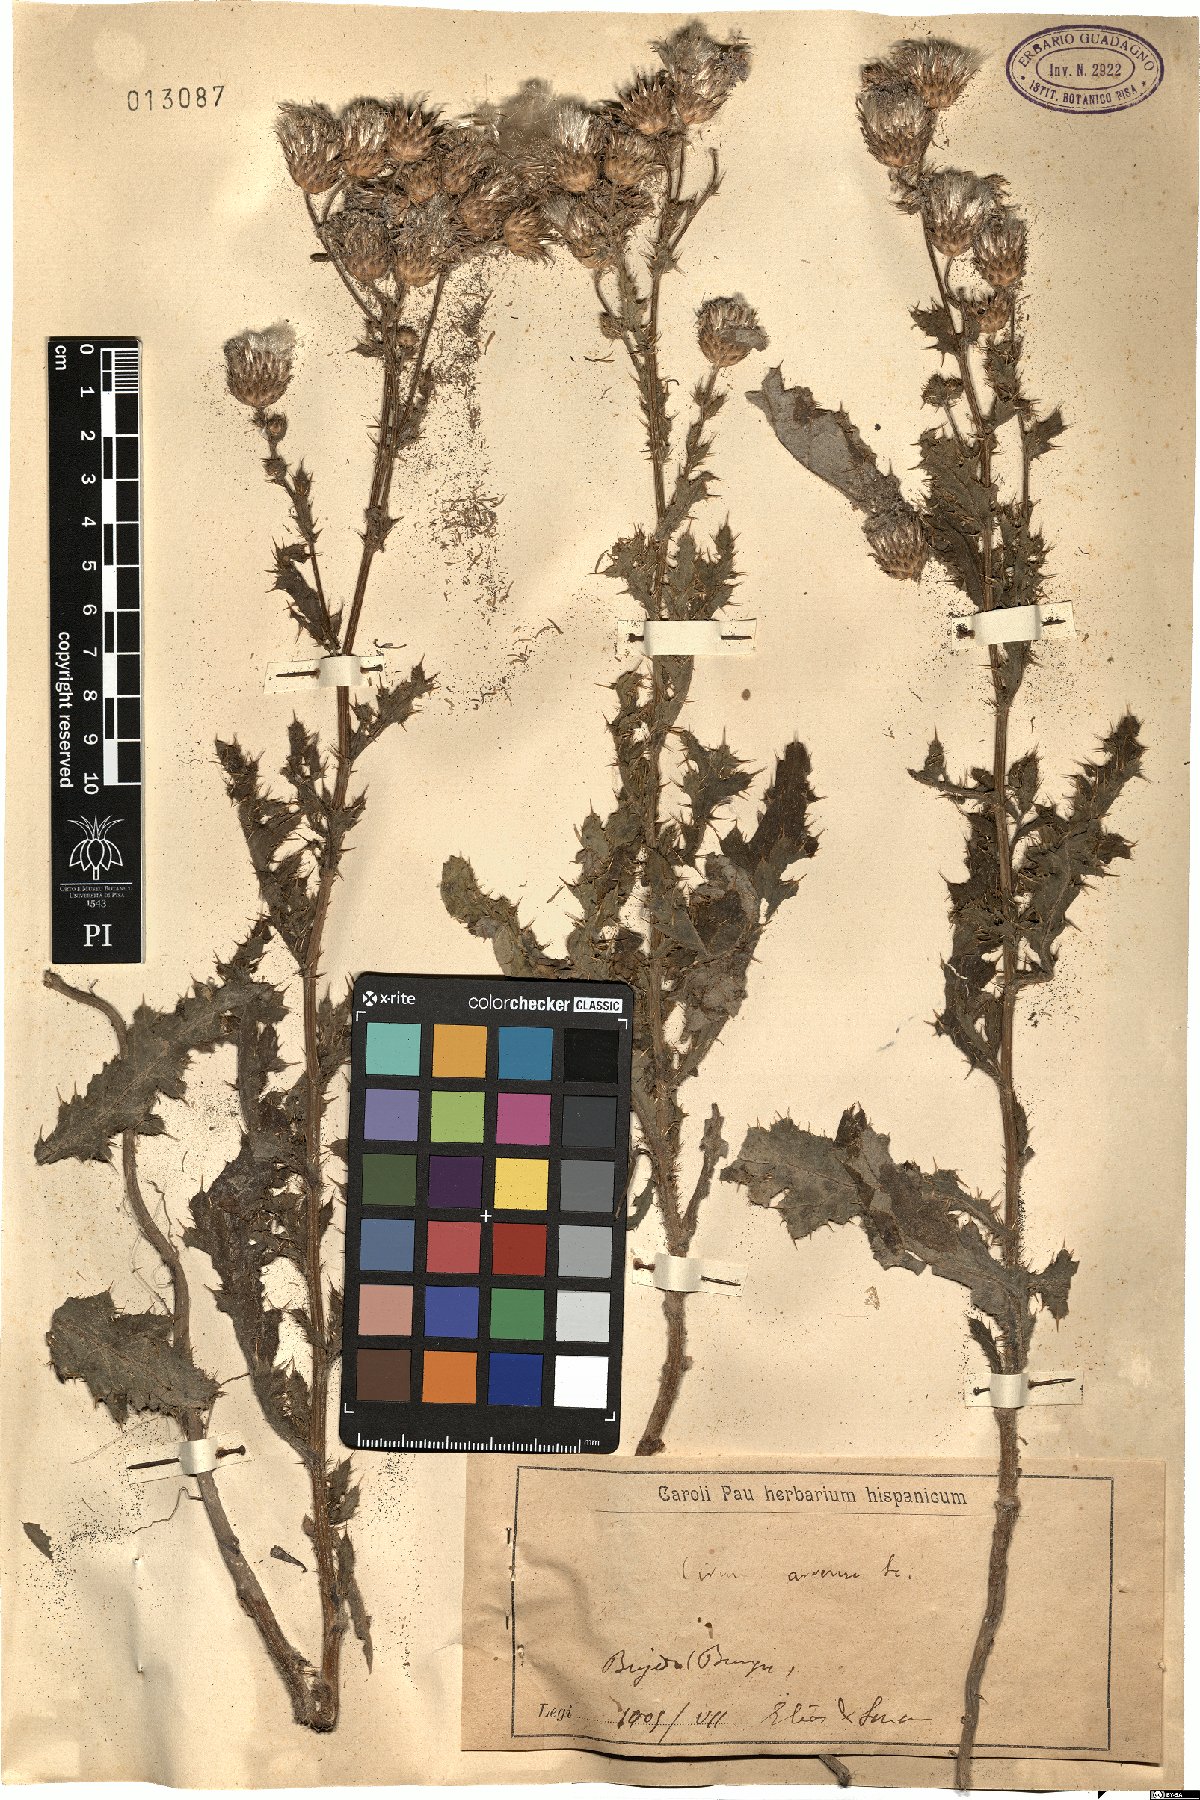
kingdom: Plantae
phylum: Tracheophyta
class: Magnoliopsida
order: Asterales
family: Asteraceae
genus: Cirsium
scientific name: Cirsium arvense
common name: Creeping thistle
